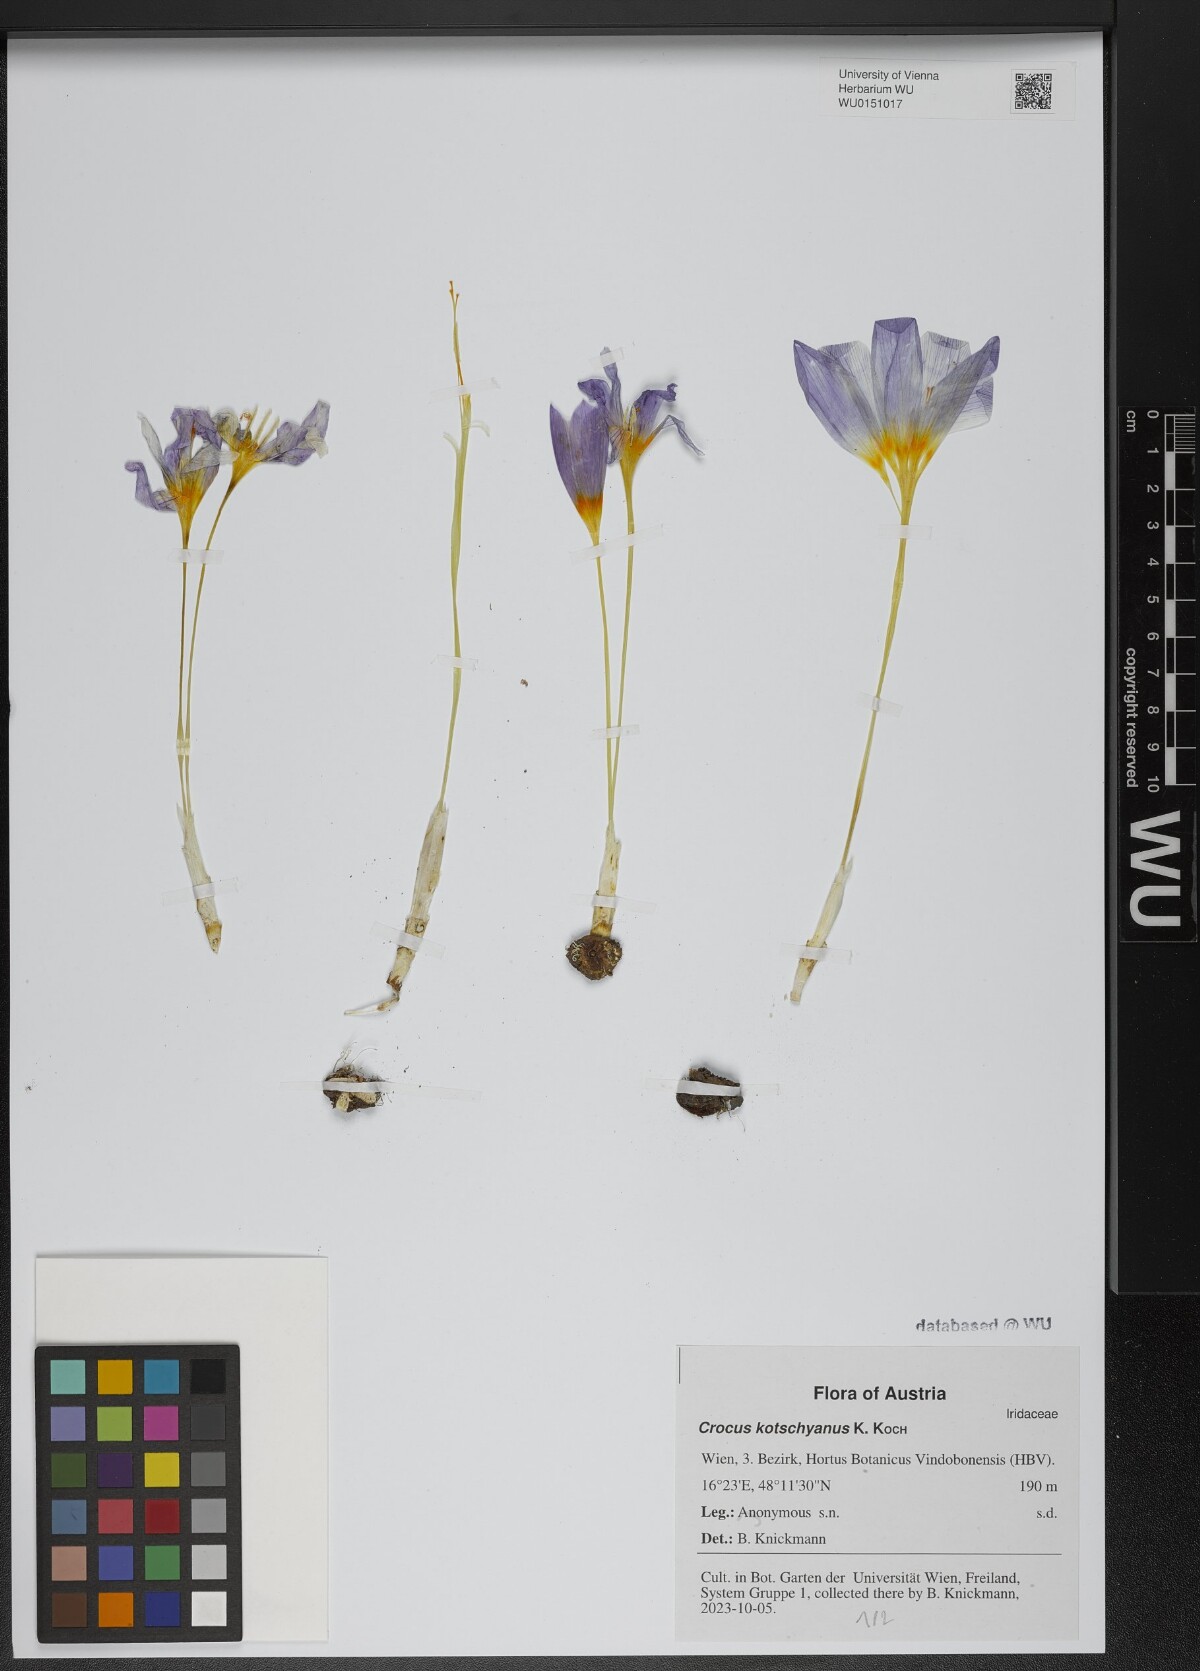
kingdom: Plantae
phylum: Tracheophyta
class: Liliopsida
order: Asparagales
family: Iridaceae
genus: Crocus
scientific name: Crocus kotschyanus
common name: Kotschy's crocus
